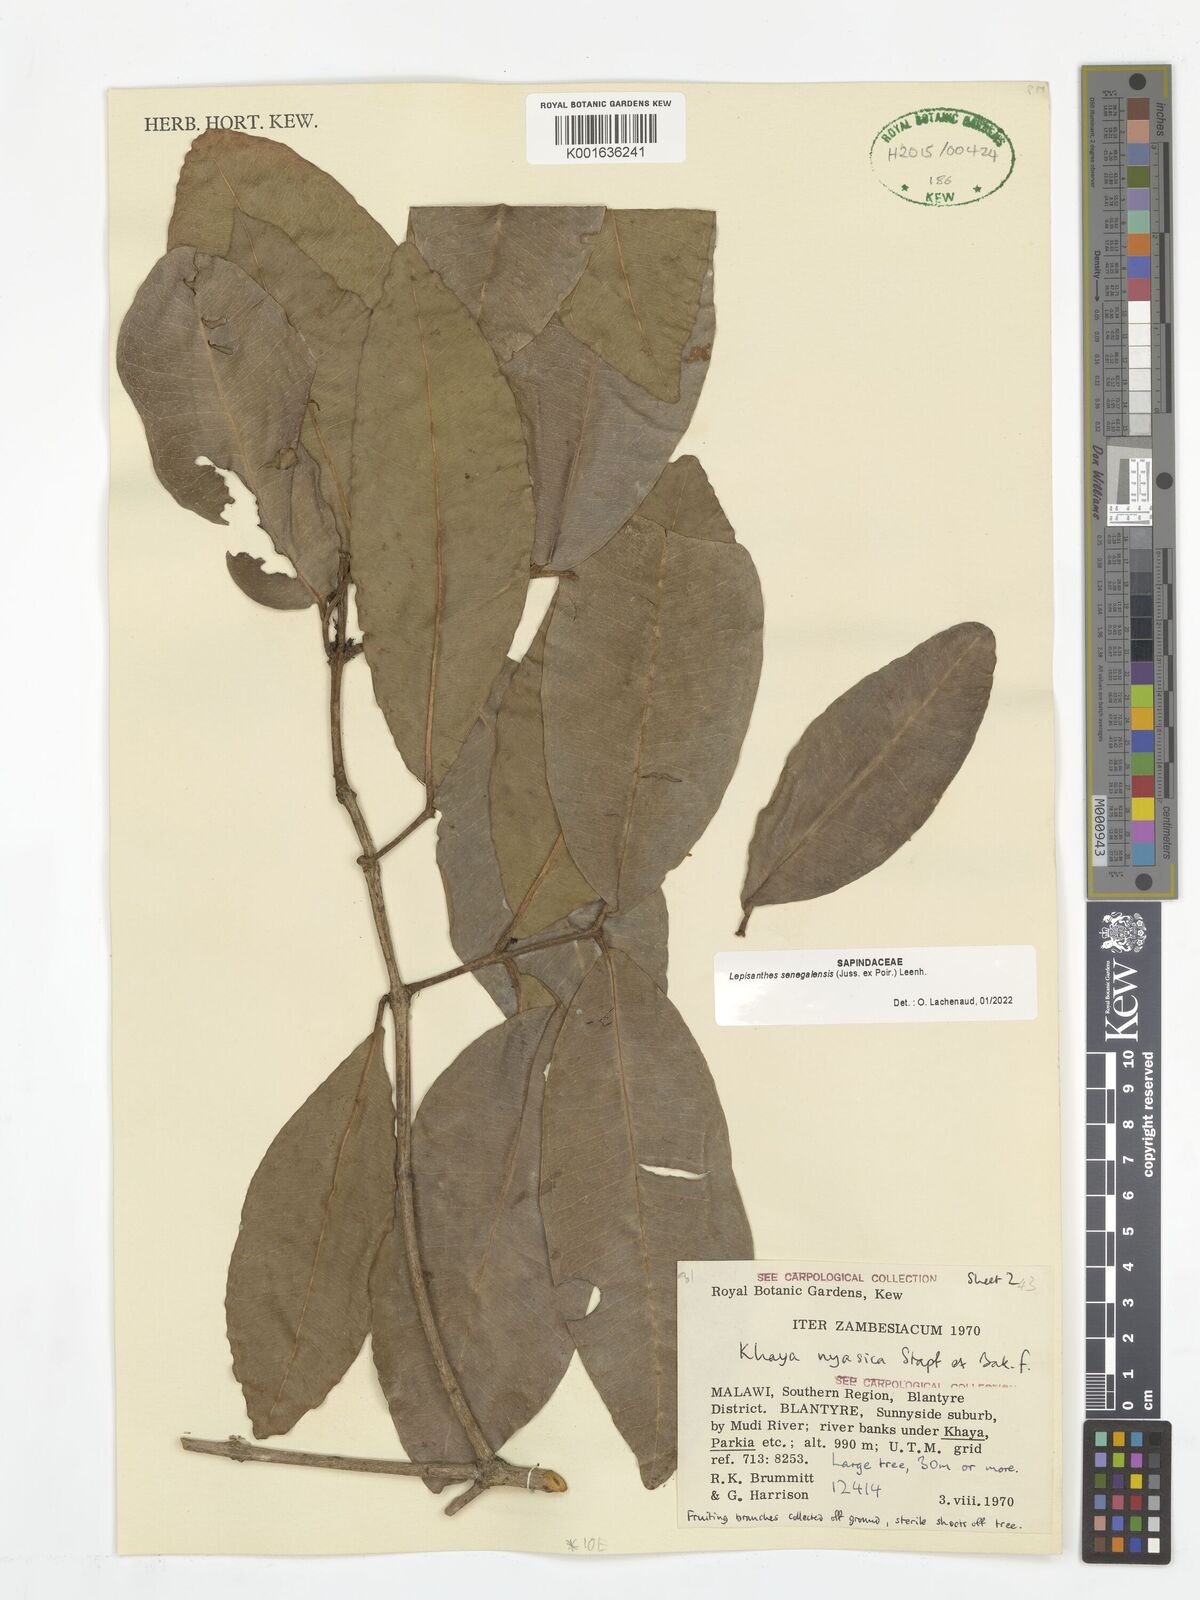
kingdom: Plantae
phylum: Tracheophyta
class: Magnoliopsida
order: Sapindales
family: Sapindaceae
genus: Lepisanthes
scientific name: Lepisanthes senegalensis
